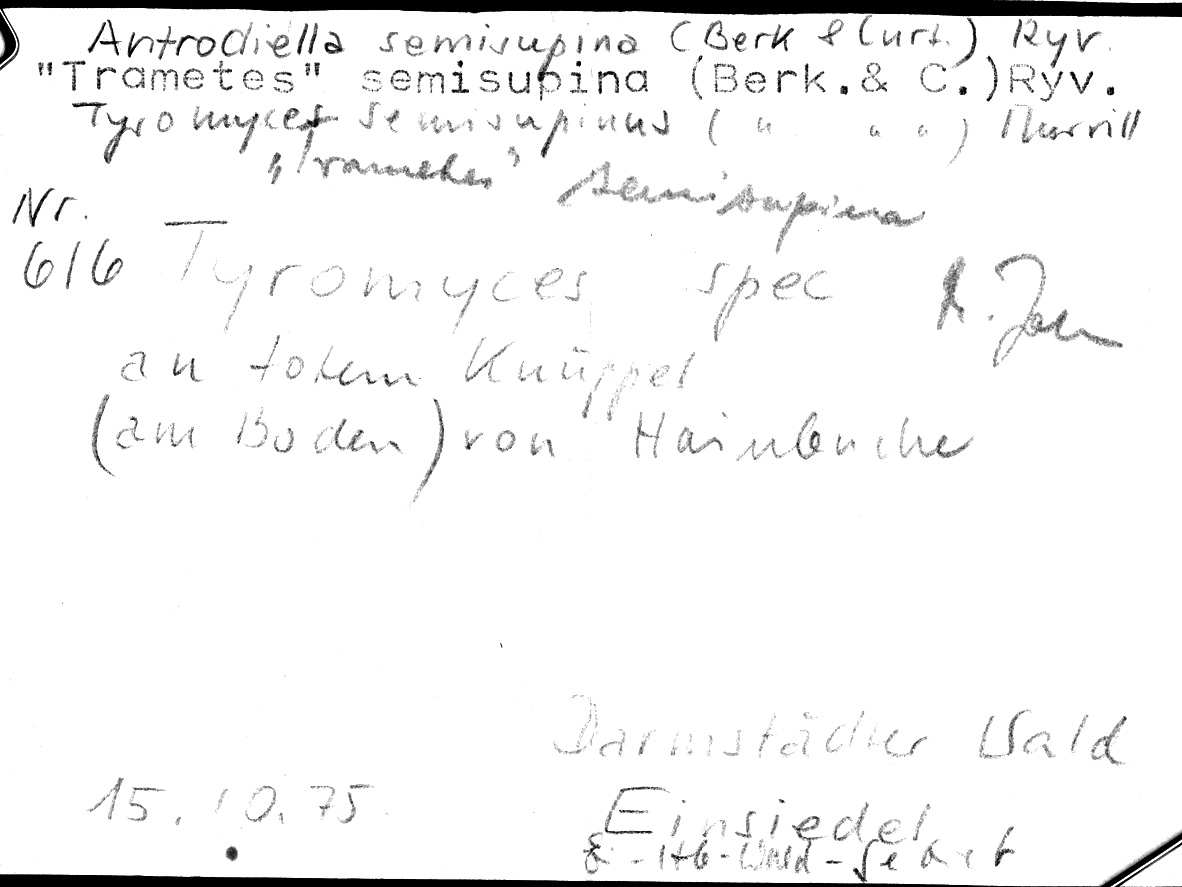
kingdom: Plantae
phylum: Tracheophyta
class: Magnoliopsida
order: Fagales
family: Betulaceae
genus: Carpinus
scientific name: Carpinus betulus
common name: Hornbeam
